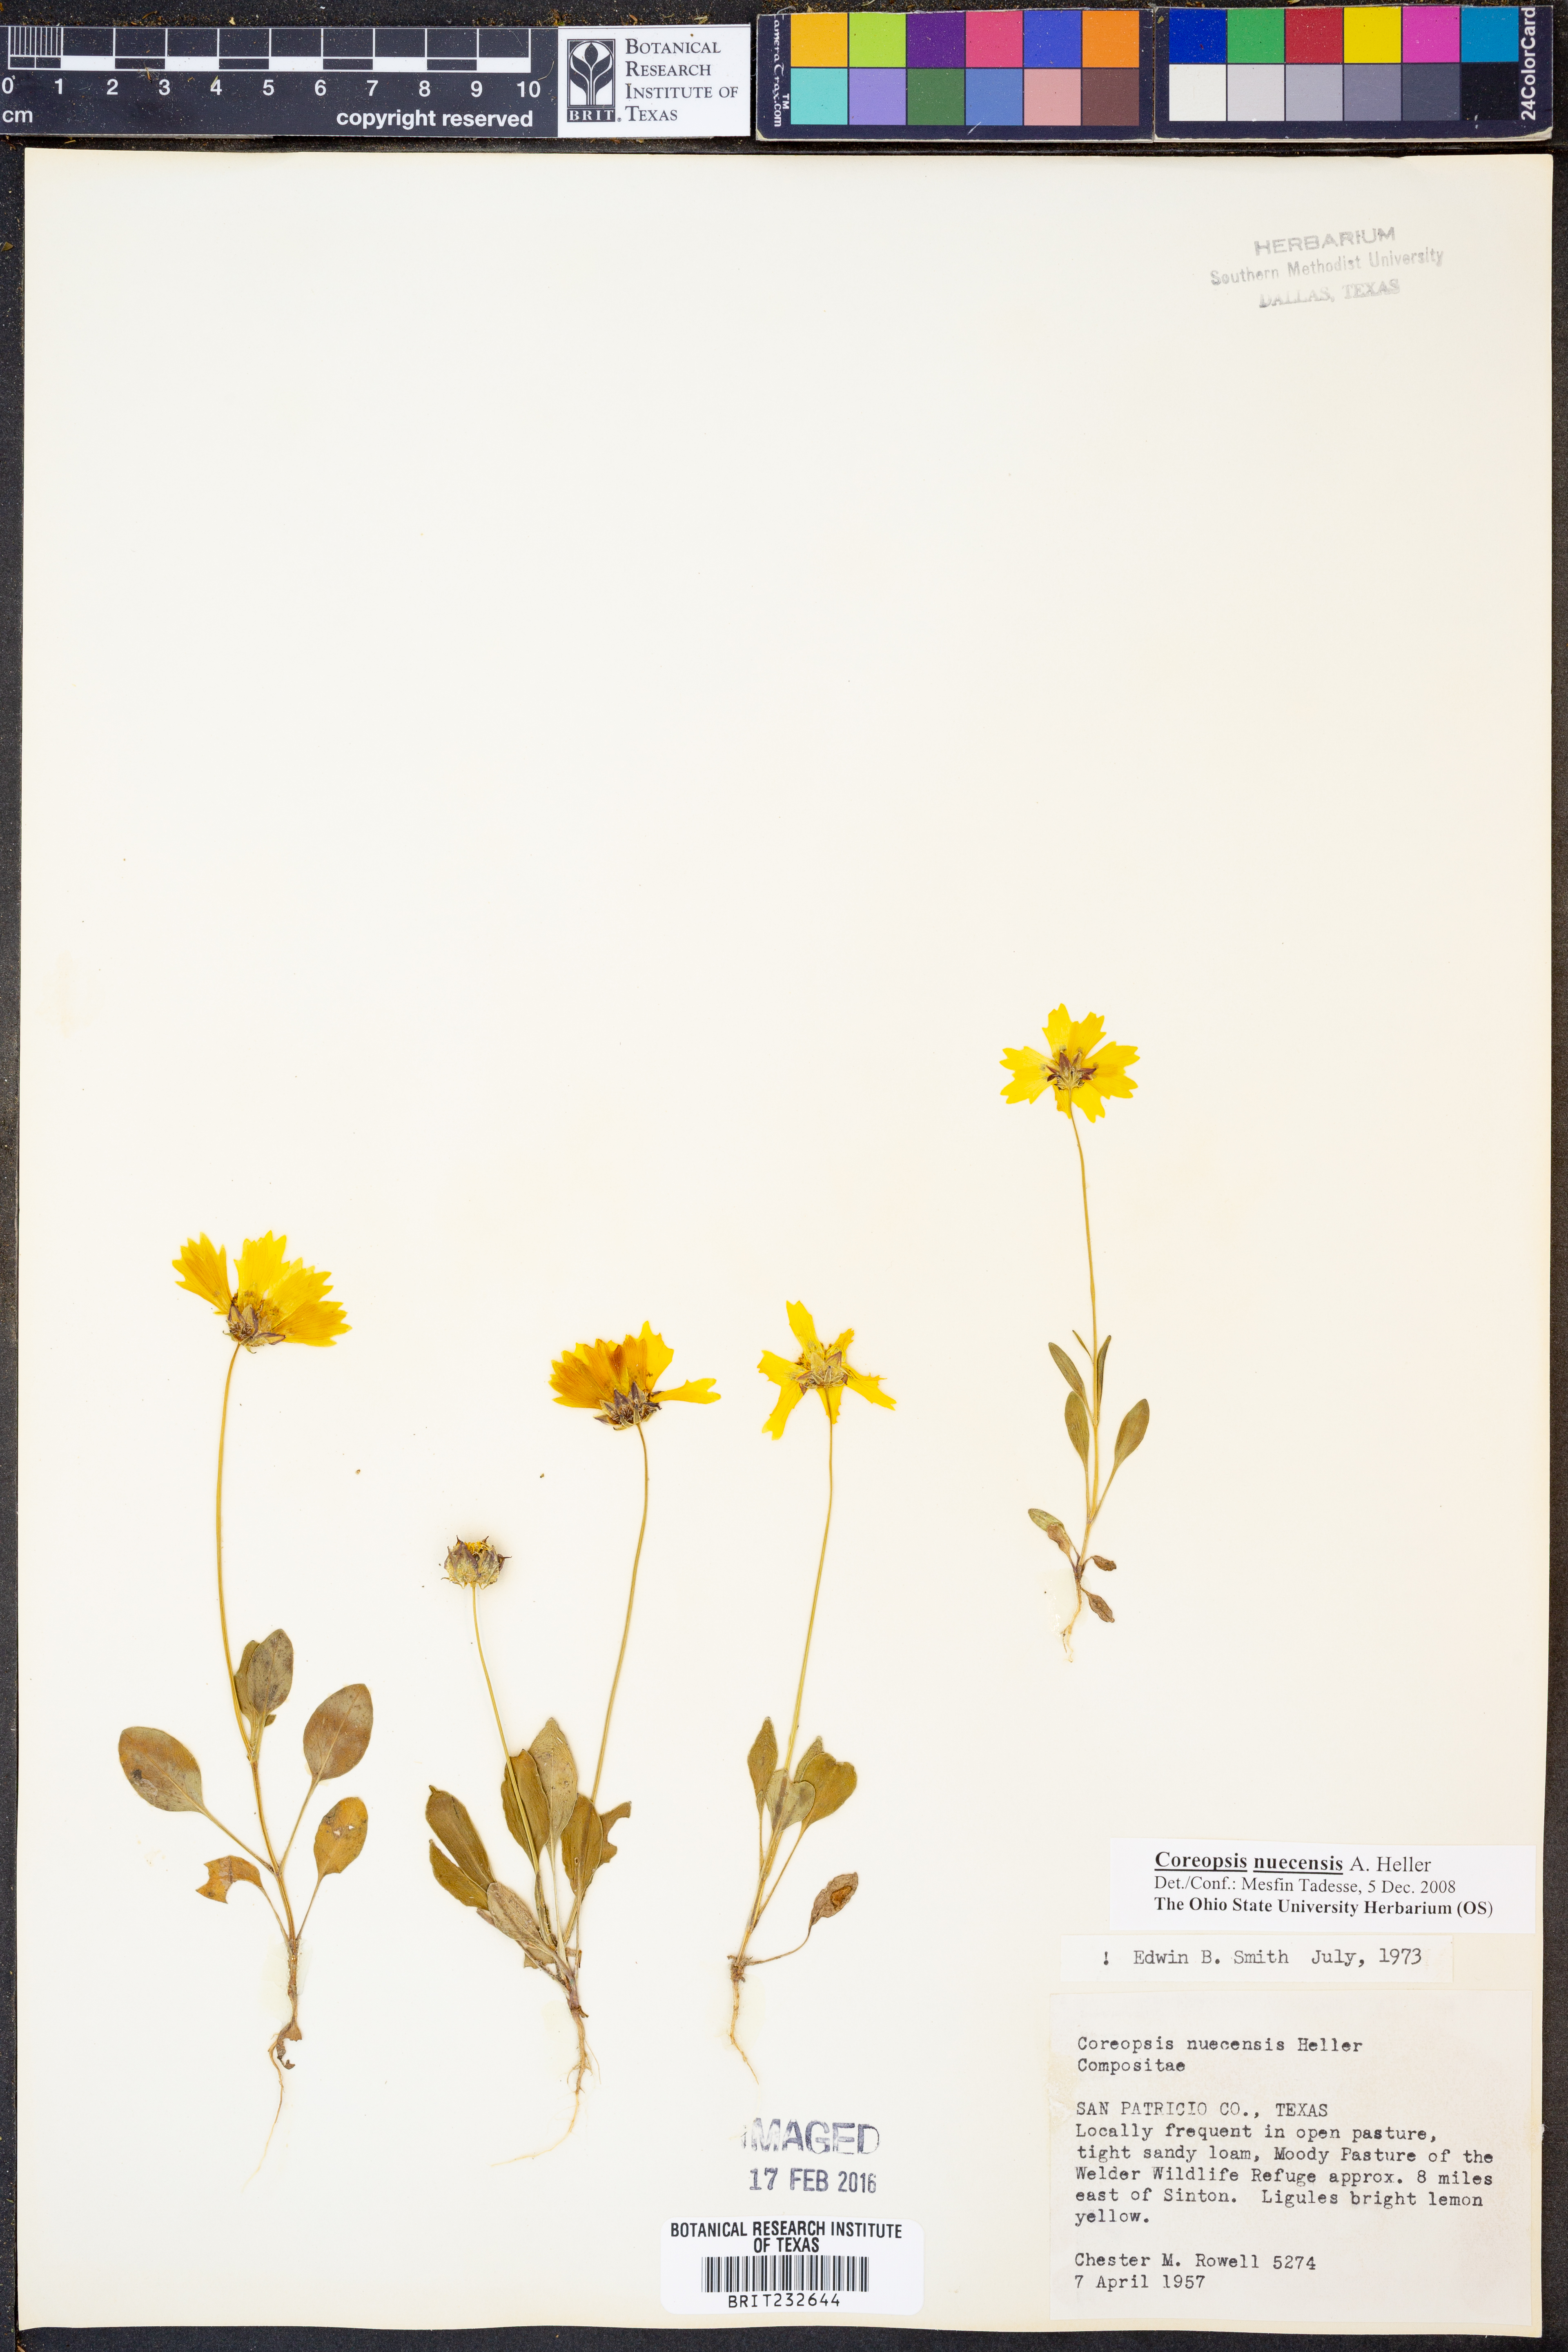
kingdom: Plantae
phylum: Tracheophyta
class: Magnoliopsida
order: Asterales
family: Asteraceae
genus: Coreopsis
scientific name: Coreopsis nuecensis
